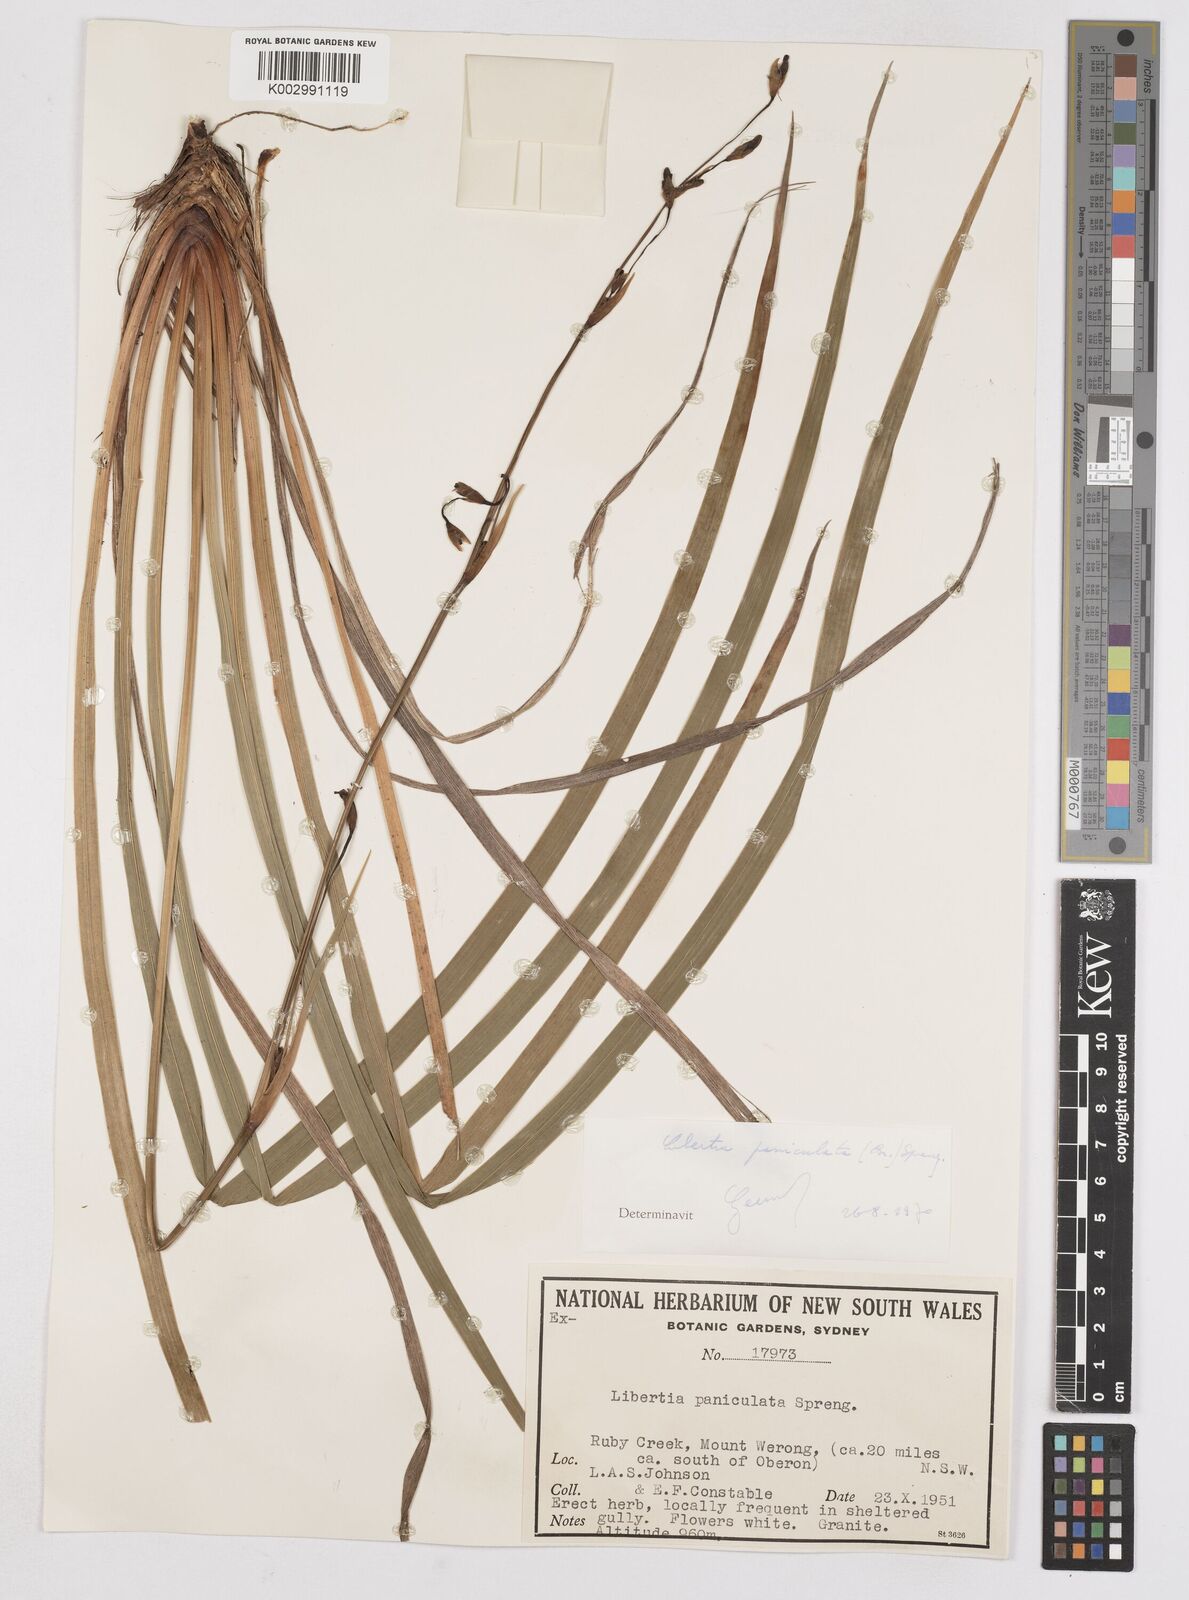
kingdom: Plantae
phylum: Tracheophyta
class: Liliopsida
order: Asparagales
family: Iridaceae
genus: Libertia
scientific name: Libertia paniculata
